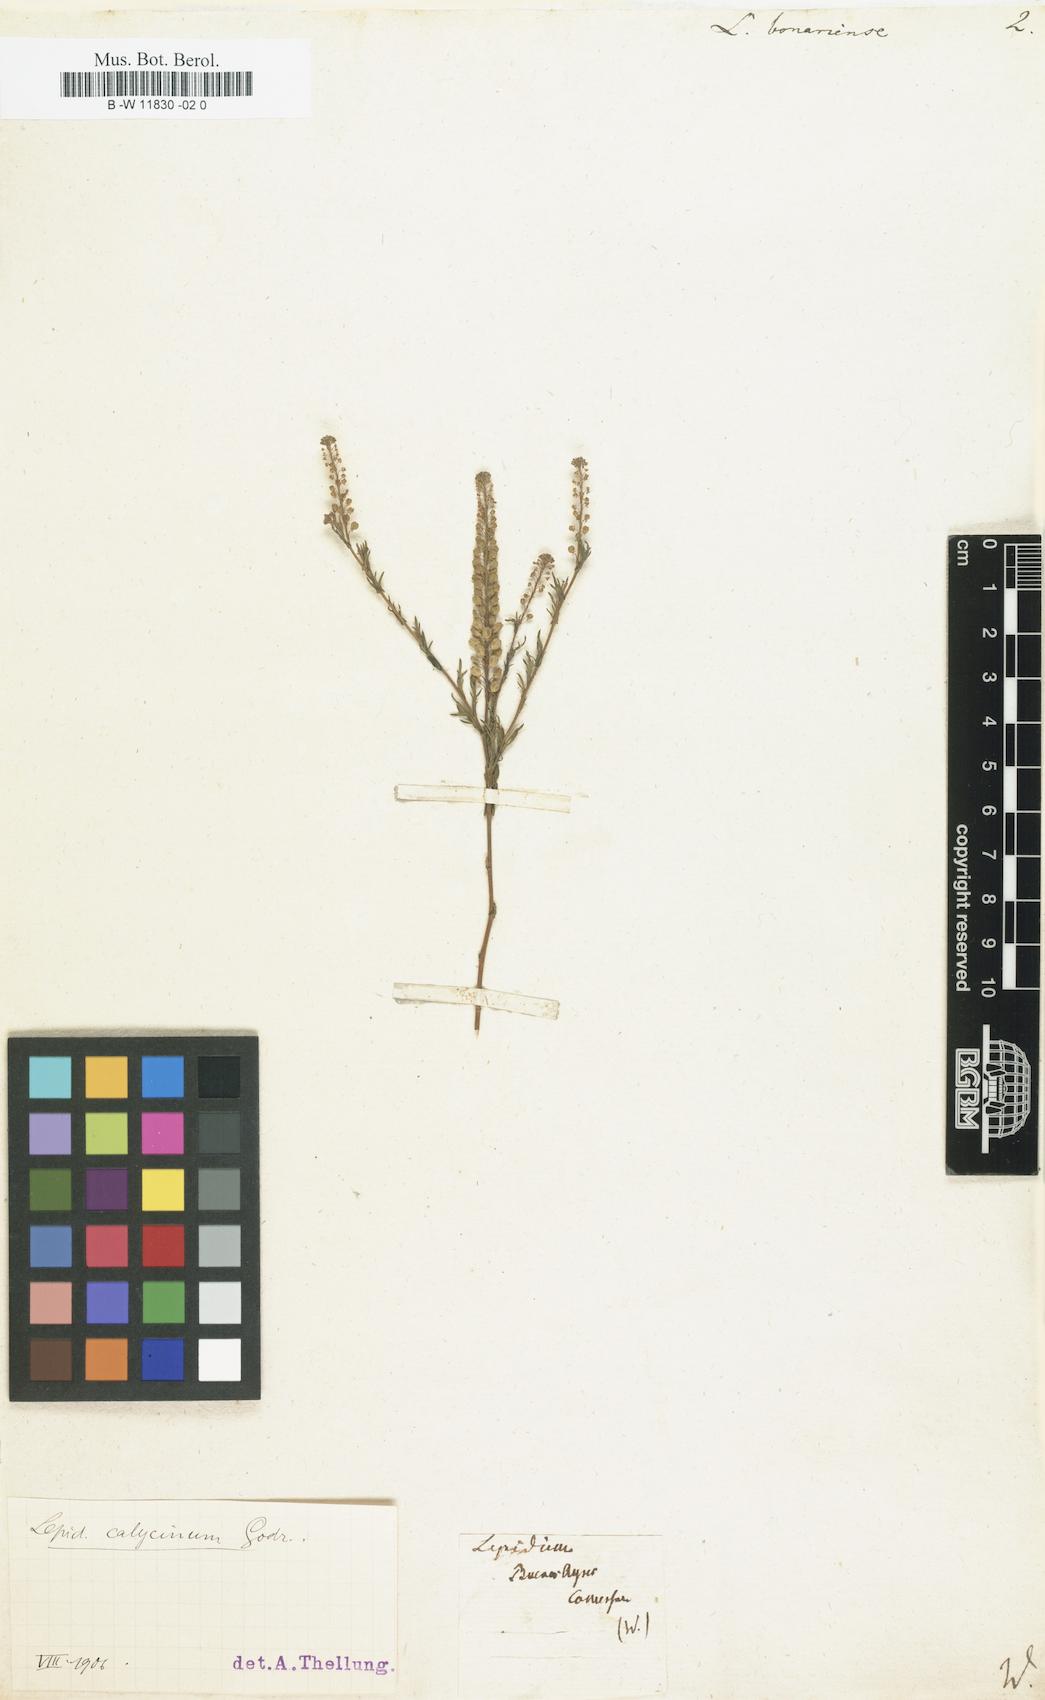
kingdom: Plantae
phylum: Tracheophyta
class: Magnoliopsida
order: Brassicales
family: Brassicaceae
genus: Lepidium
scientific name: Lepidium bonariense
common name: Argentine pepperwort
